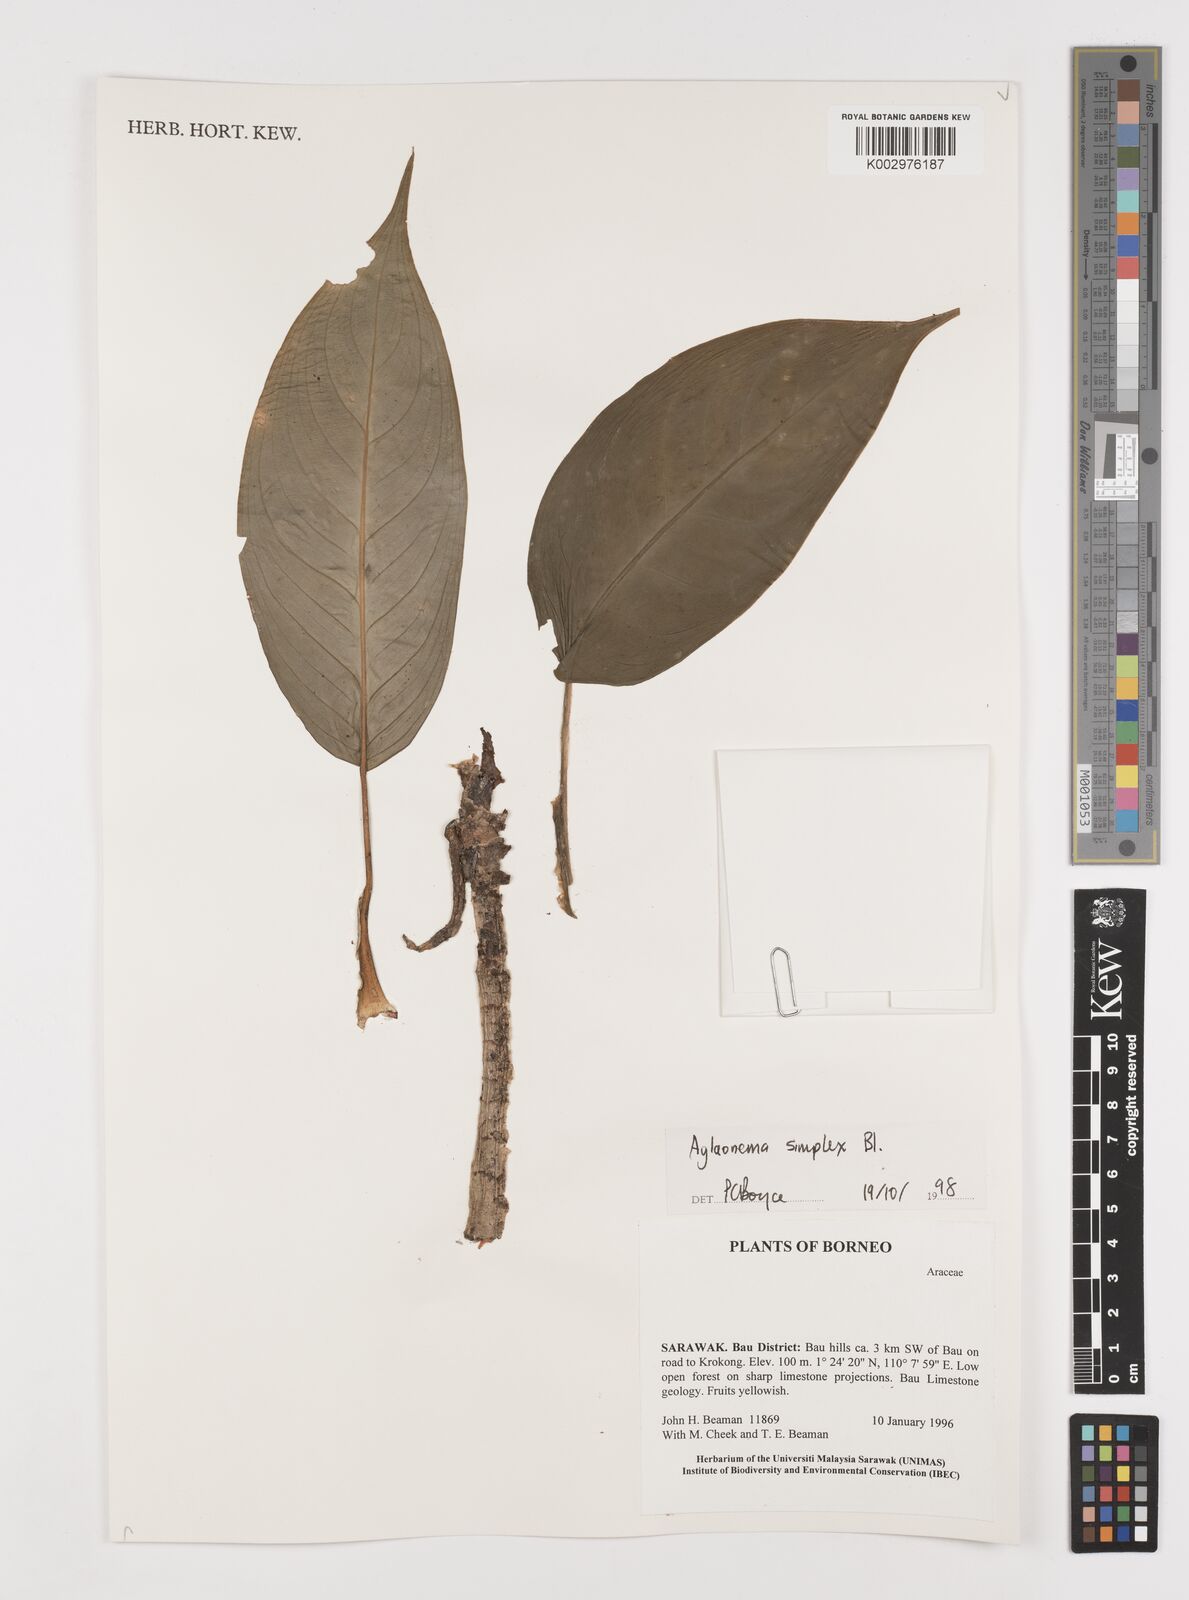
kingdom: Plantae
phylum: Tracheophyta
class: Liliopsida
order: Alismatales
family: Araceae
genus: Aglaonema
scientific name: Aglaonema simplex
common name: Malayan-sword
